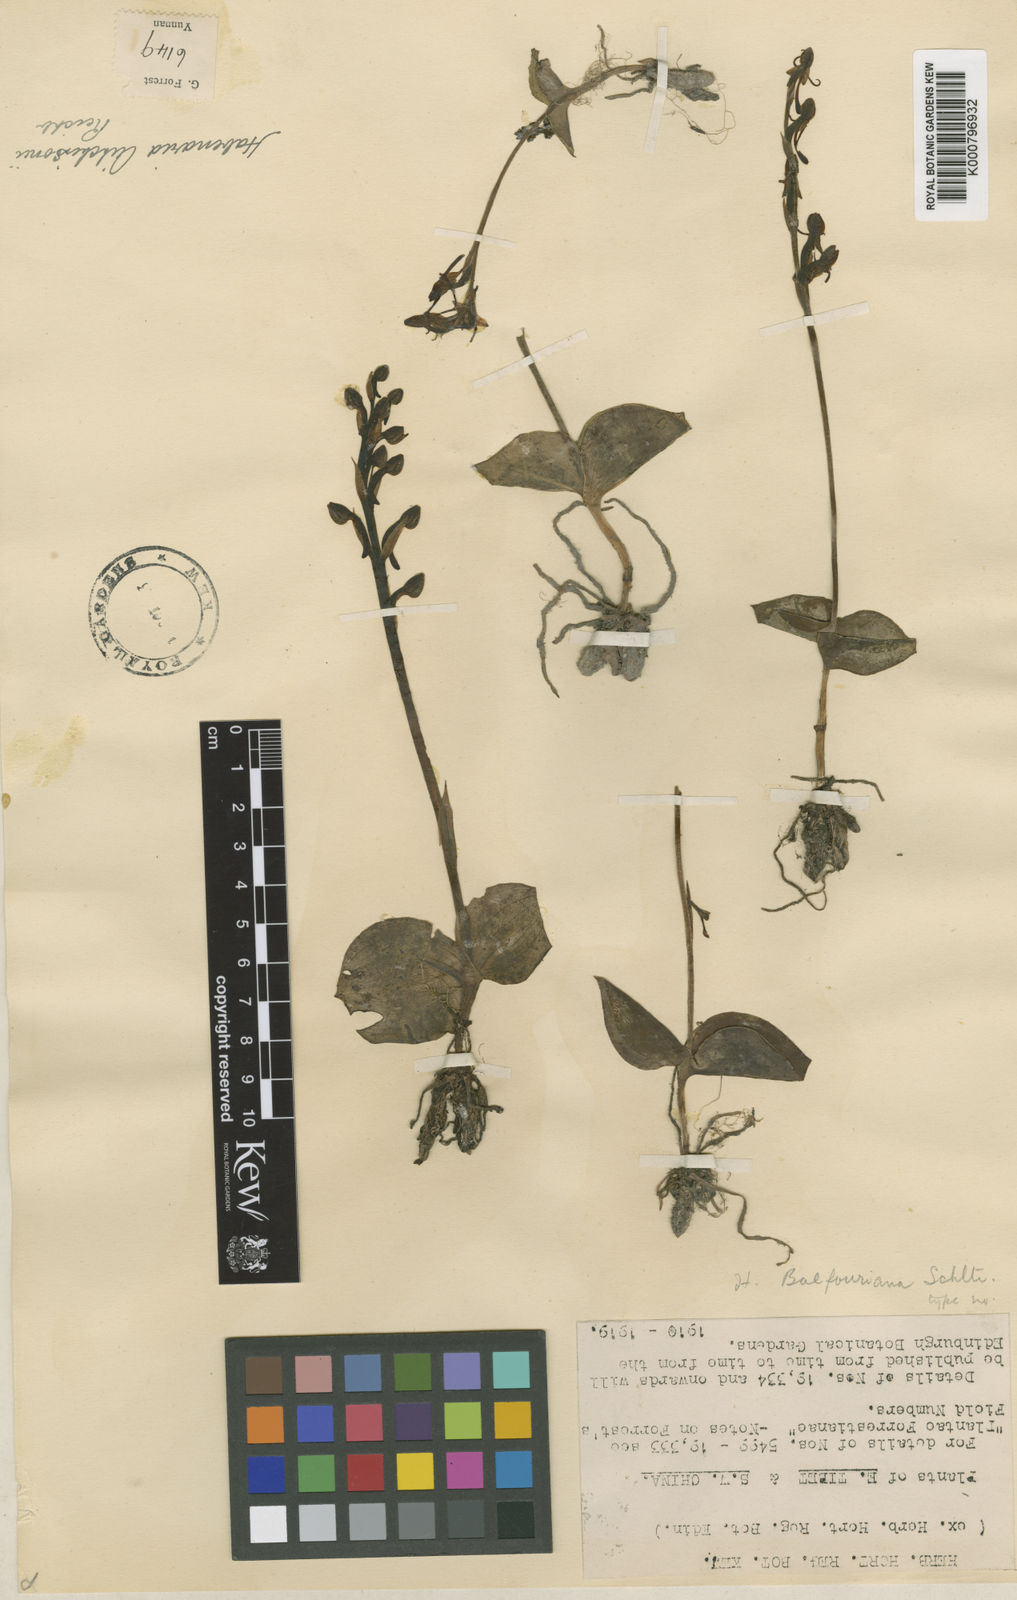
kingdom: Plantae
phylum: Tracheophyta
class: Liliopsida
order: Asparagales
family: Orchidaceae
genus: Habenaria
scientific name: Habenaria balfouriana
